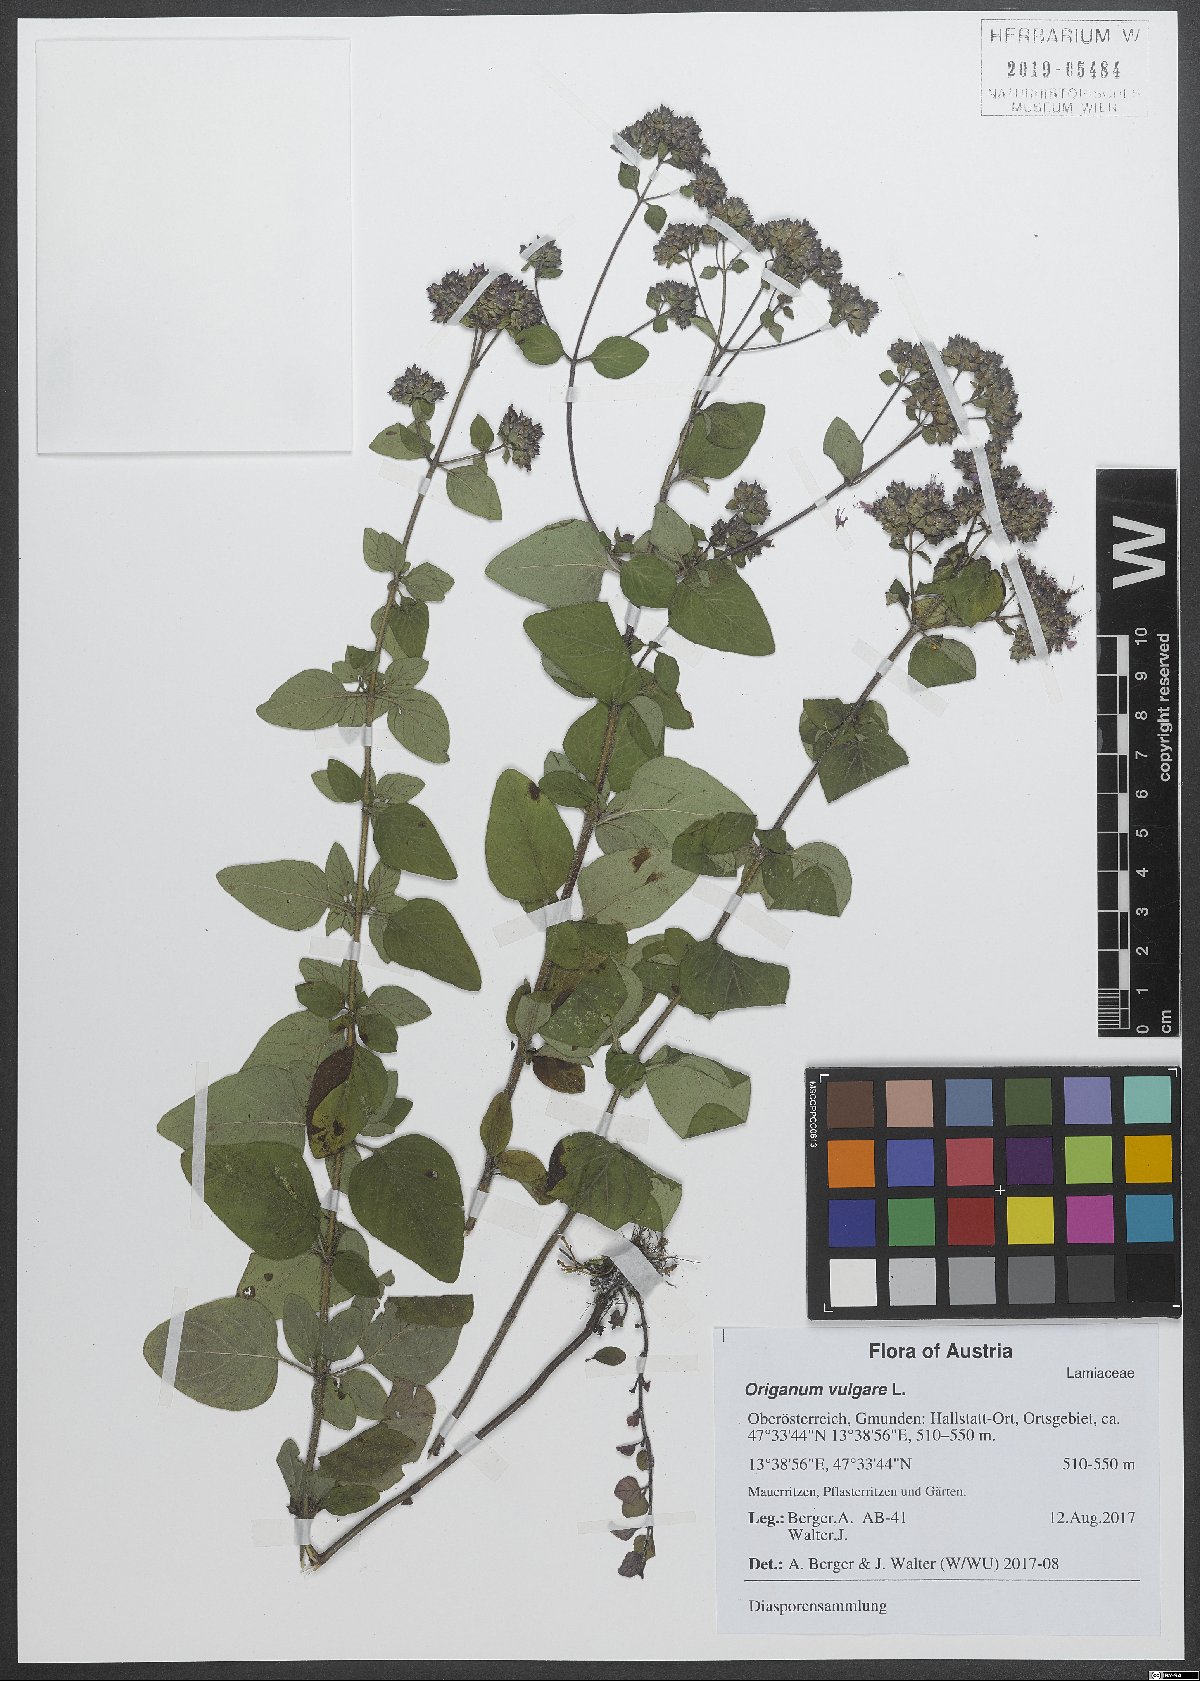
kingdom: Plantae
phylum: Tracheophyta
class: Magnoliopsida
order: Lamiales
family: Lamiaceae
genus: Origanum
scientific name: Origanum vulgare
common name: Wild marjoram
